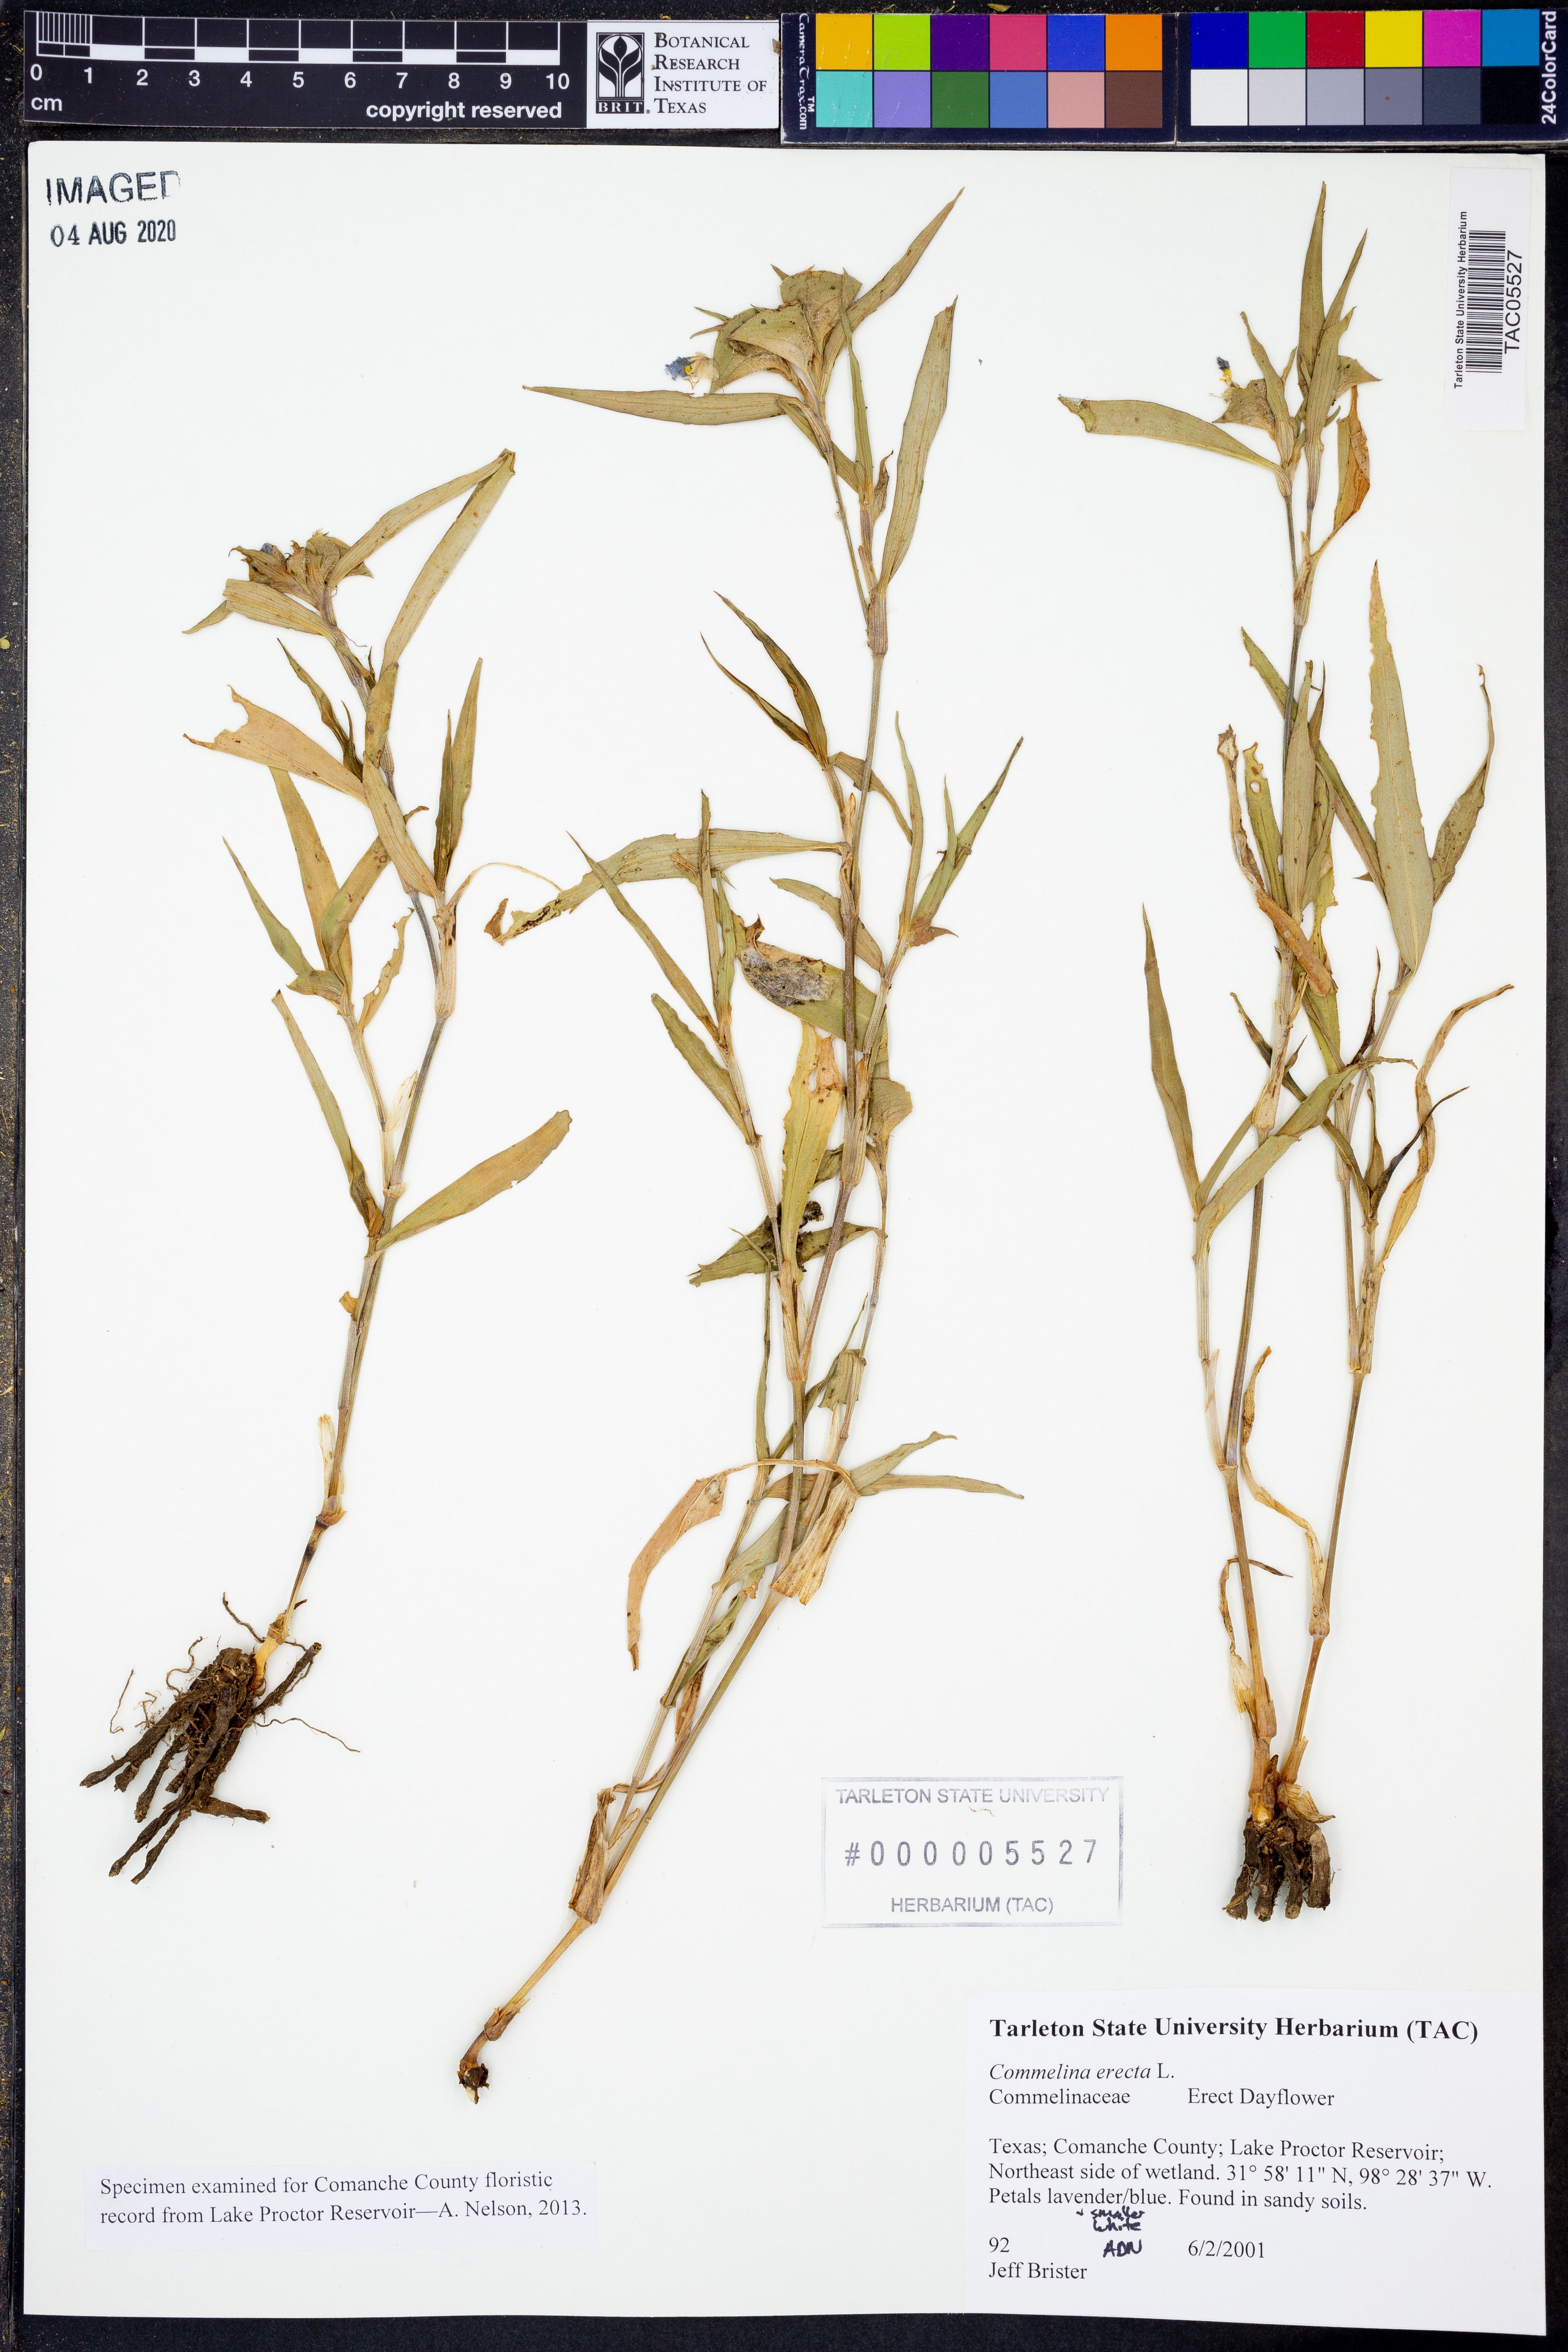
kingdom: Plantae
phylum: Tracheophyta
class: Liliopsida
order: Commelinales
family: Commelinaceae
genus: Commelina
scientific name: Commelina erecta
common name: Blousel blommetjie
